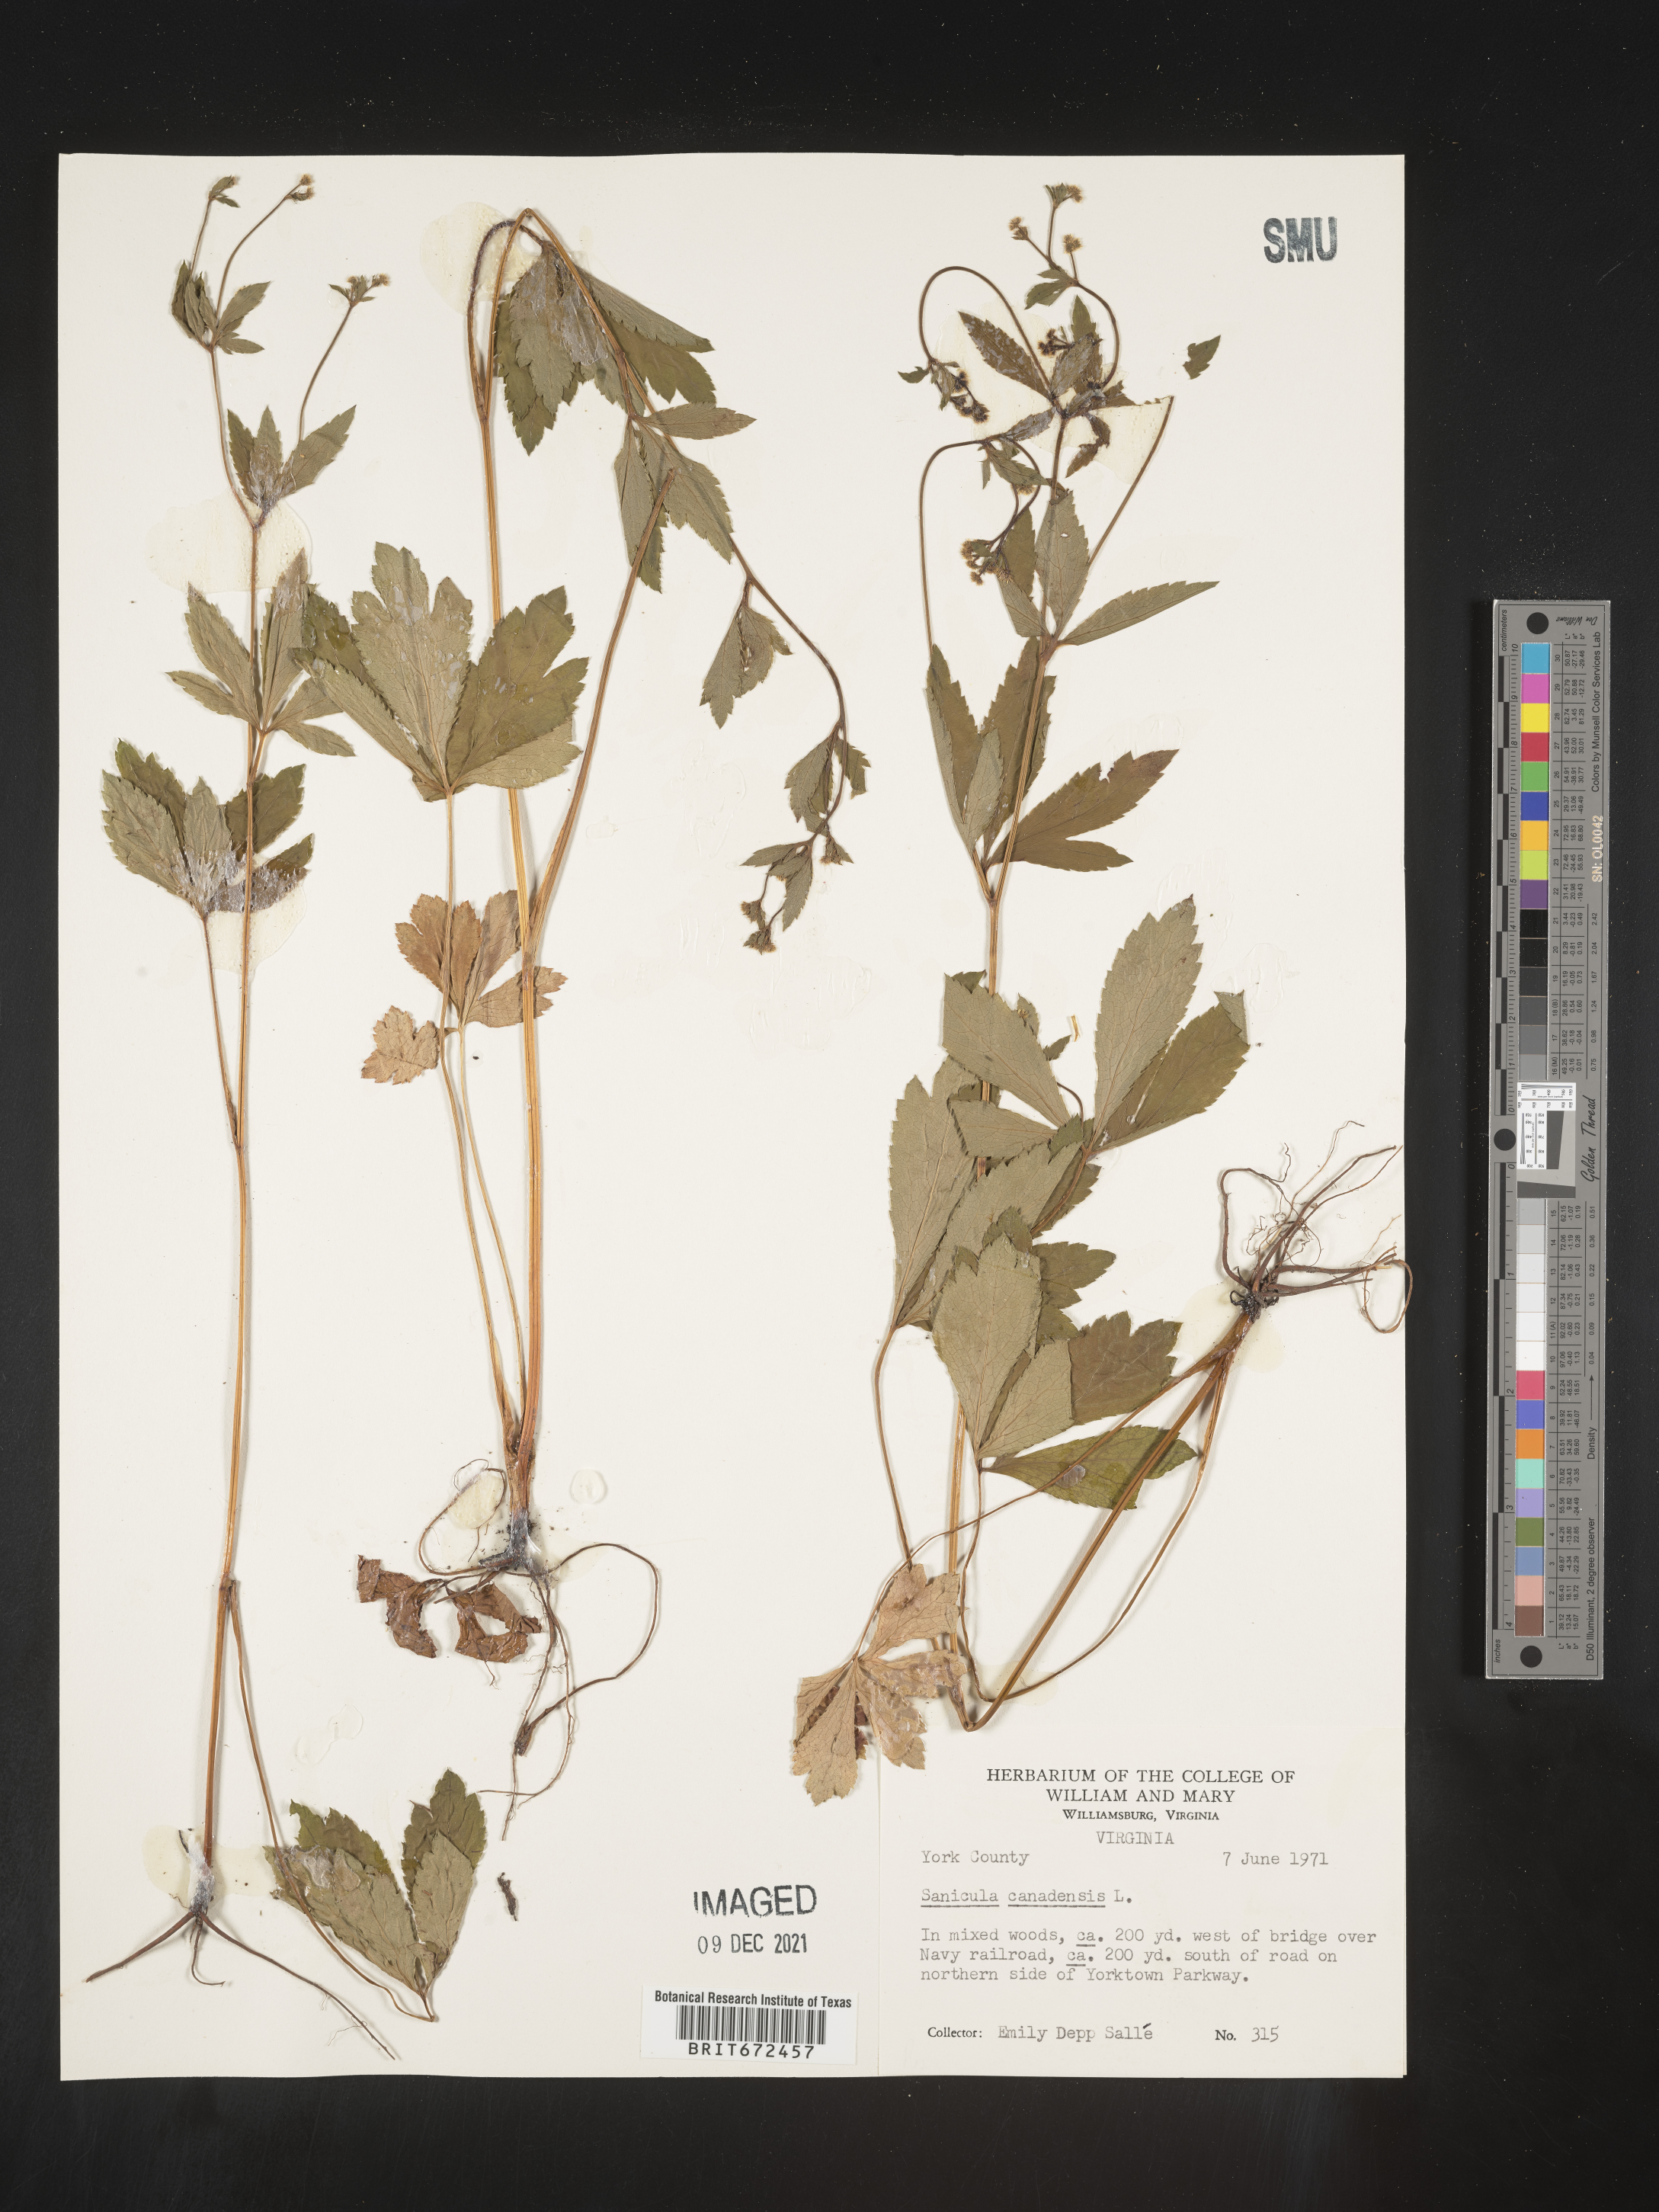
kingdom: Plantae
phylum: Tracheophyta
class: Magnoliopsida
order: Apiales
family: Apiaceae
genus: Sanicula
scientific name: Sanicula canadensis
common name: Canada sanicle
